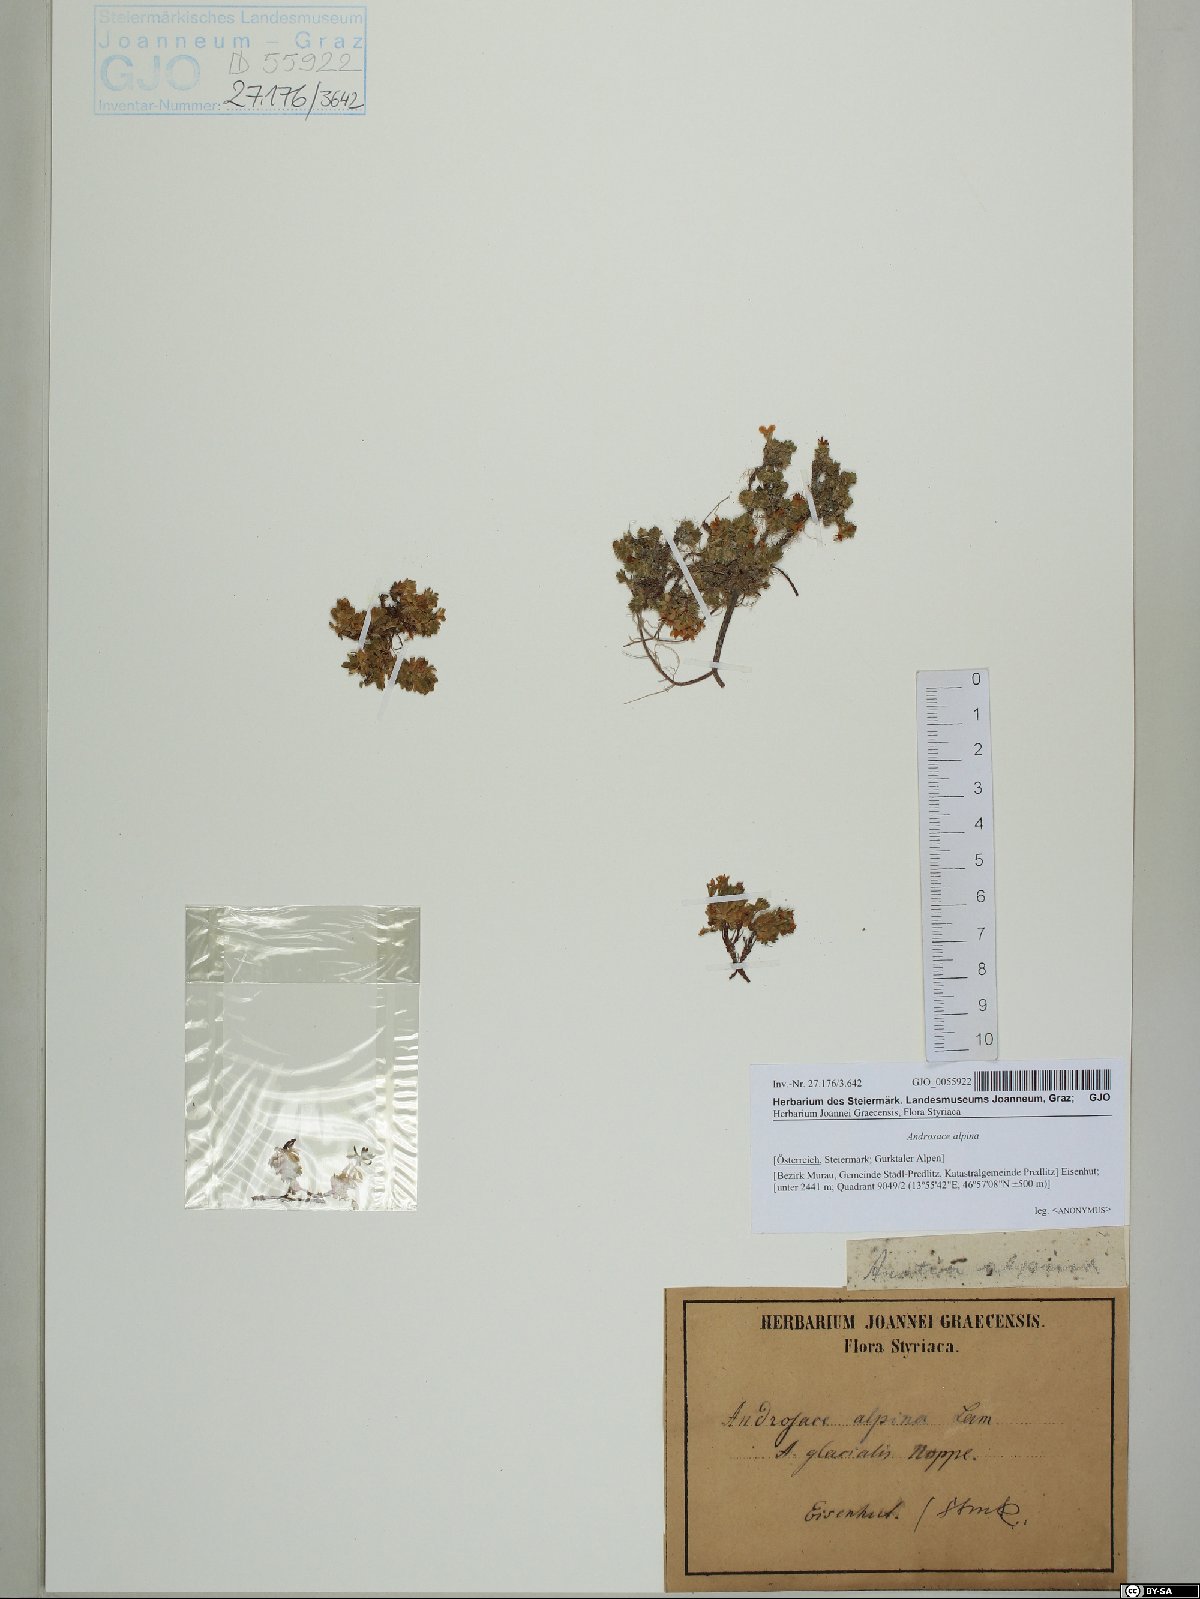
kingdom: Plantae
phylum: Tracheophyta
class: Magnoliopsida
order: Ericales
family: Primulaceae
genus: Androsace
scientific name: Androsace alpina
